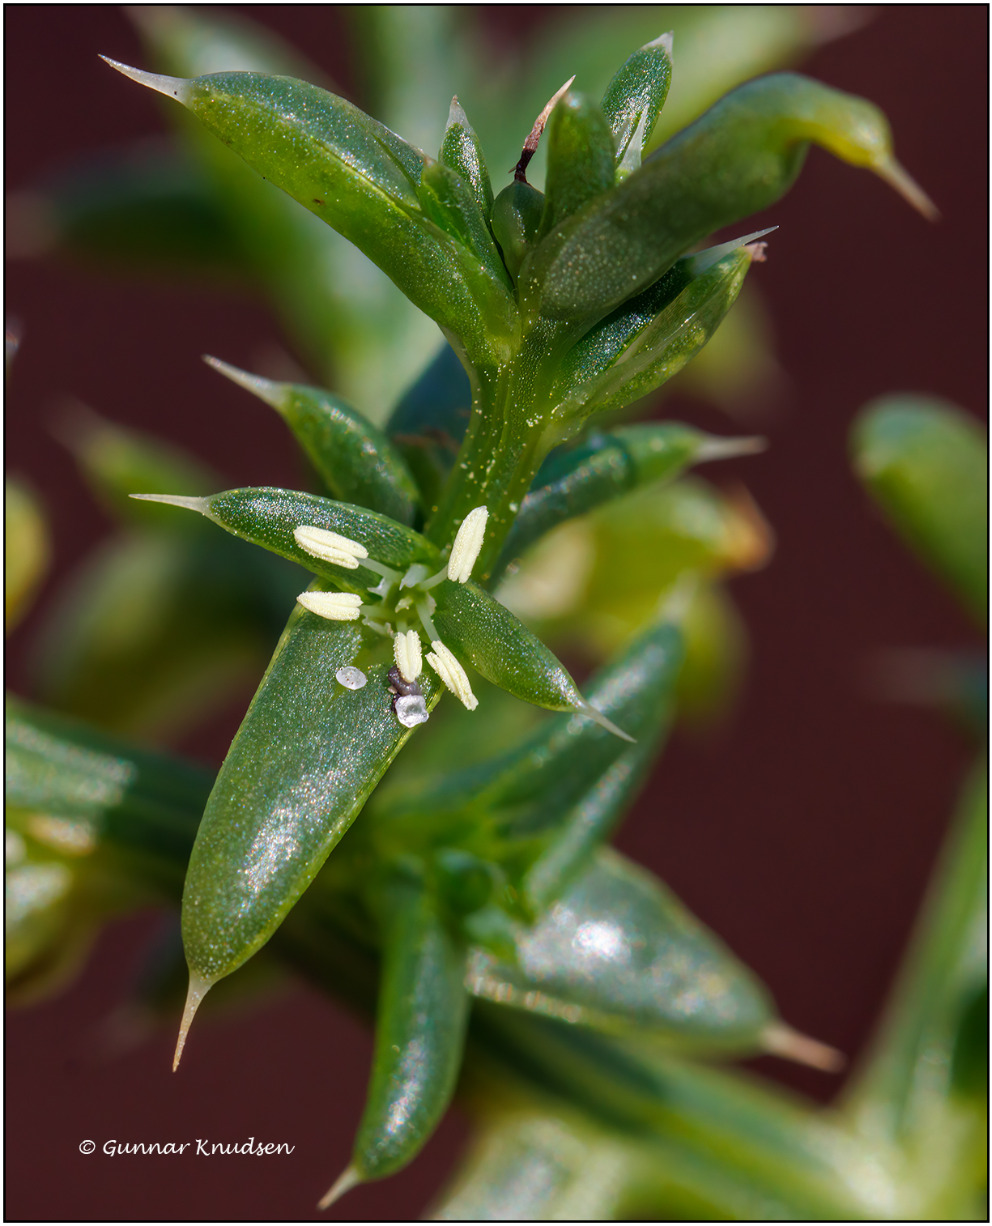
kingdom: Plantae
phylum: Tracheophyta
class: Magnoliopsida
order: Caryophyllales
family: Amaranthaceae
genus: Salsola
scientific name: Salsola kali
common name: Sodaurt
